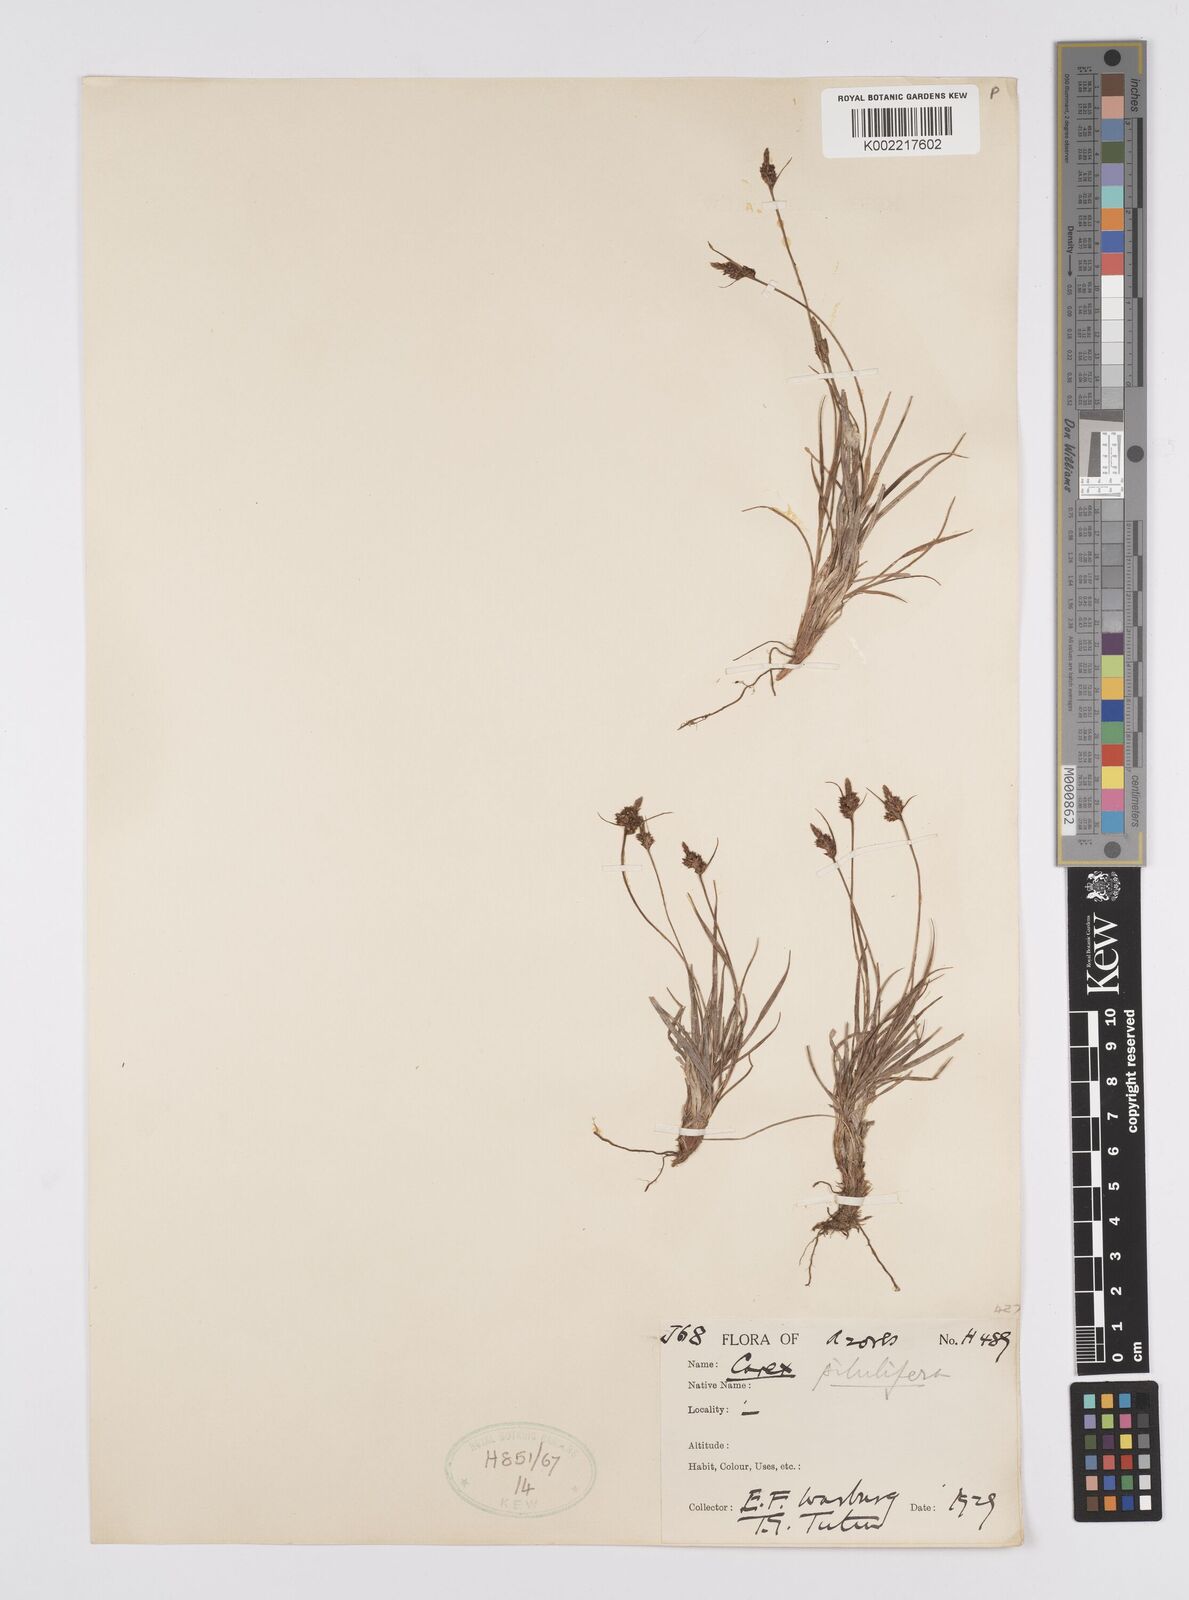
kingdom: Plantae
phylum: Tracheophyta
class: Liliopsida
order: Poales
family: Cyperaceae
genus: Carex
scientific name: Carex pilulifera
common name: Pill sedge
